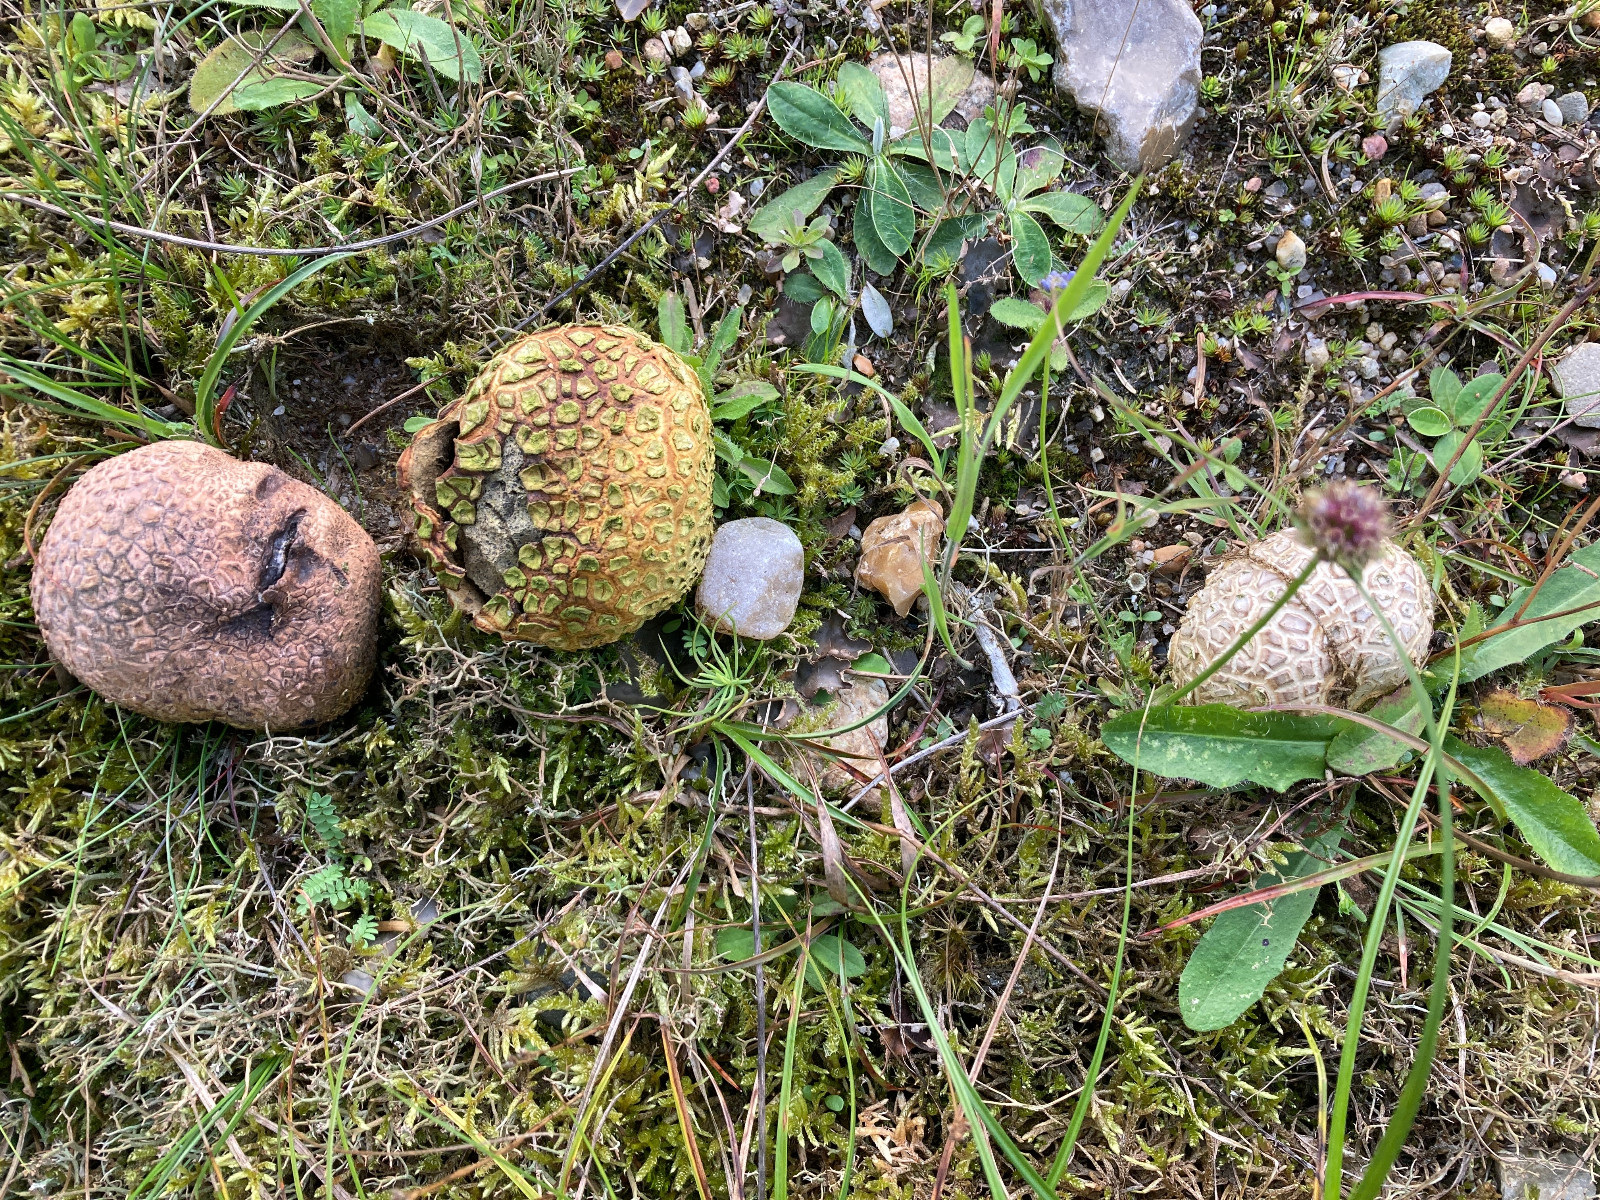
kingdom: Fungi
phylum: Basidiomycota
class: Agaricomycetes
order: Boletales
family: Sclerodermataceae
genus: Scleroderma
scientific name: Scleroderma citrinum
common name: almindelig bruskbold
